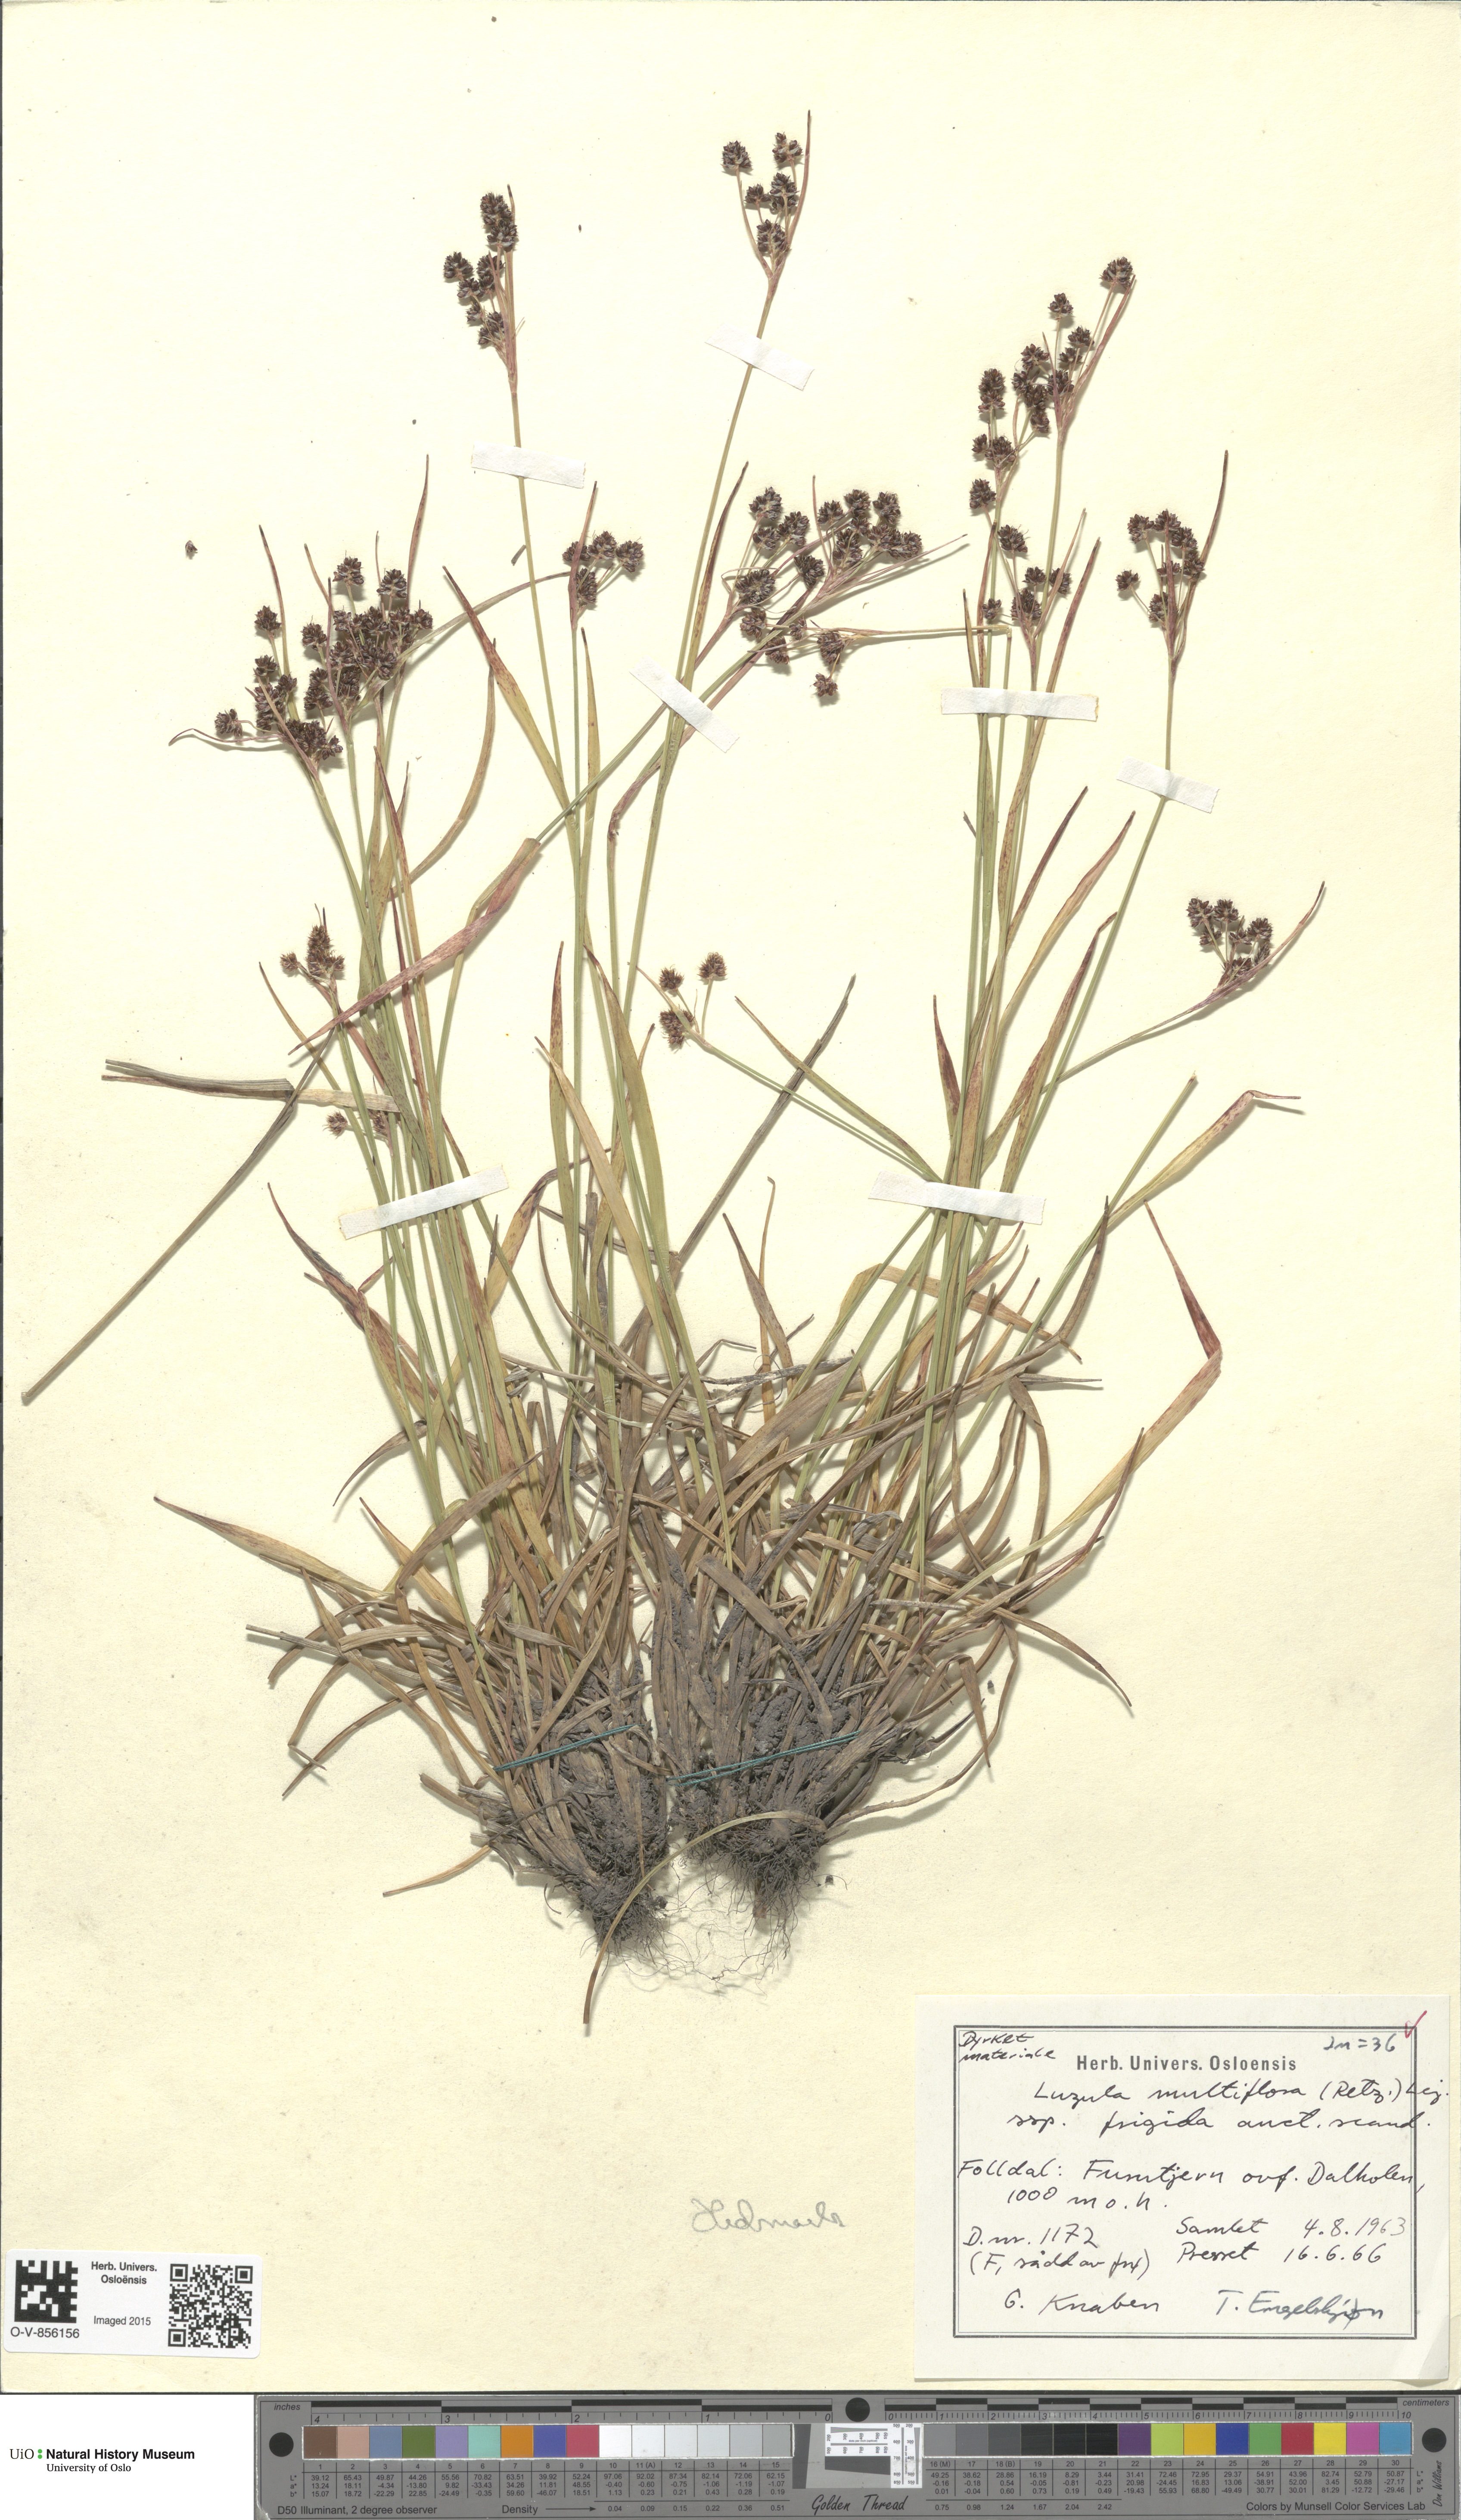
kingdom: Plantae
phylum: Tracheophyta
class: Liliopsida
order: Poales
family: Juncaceae
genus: Luzula
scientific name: Luzula multiflora
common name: Heath wood-rush
